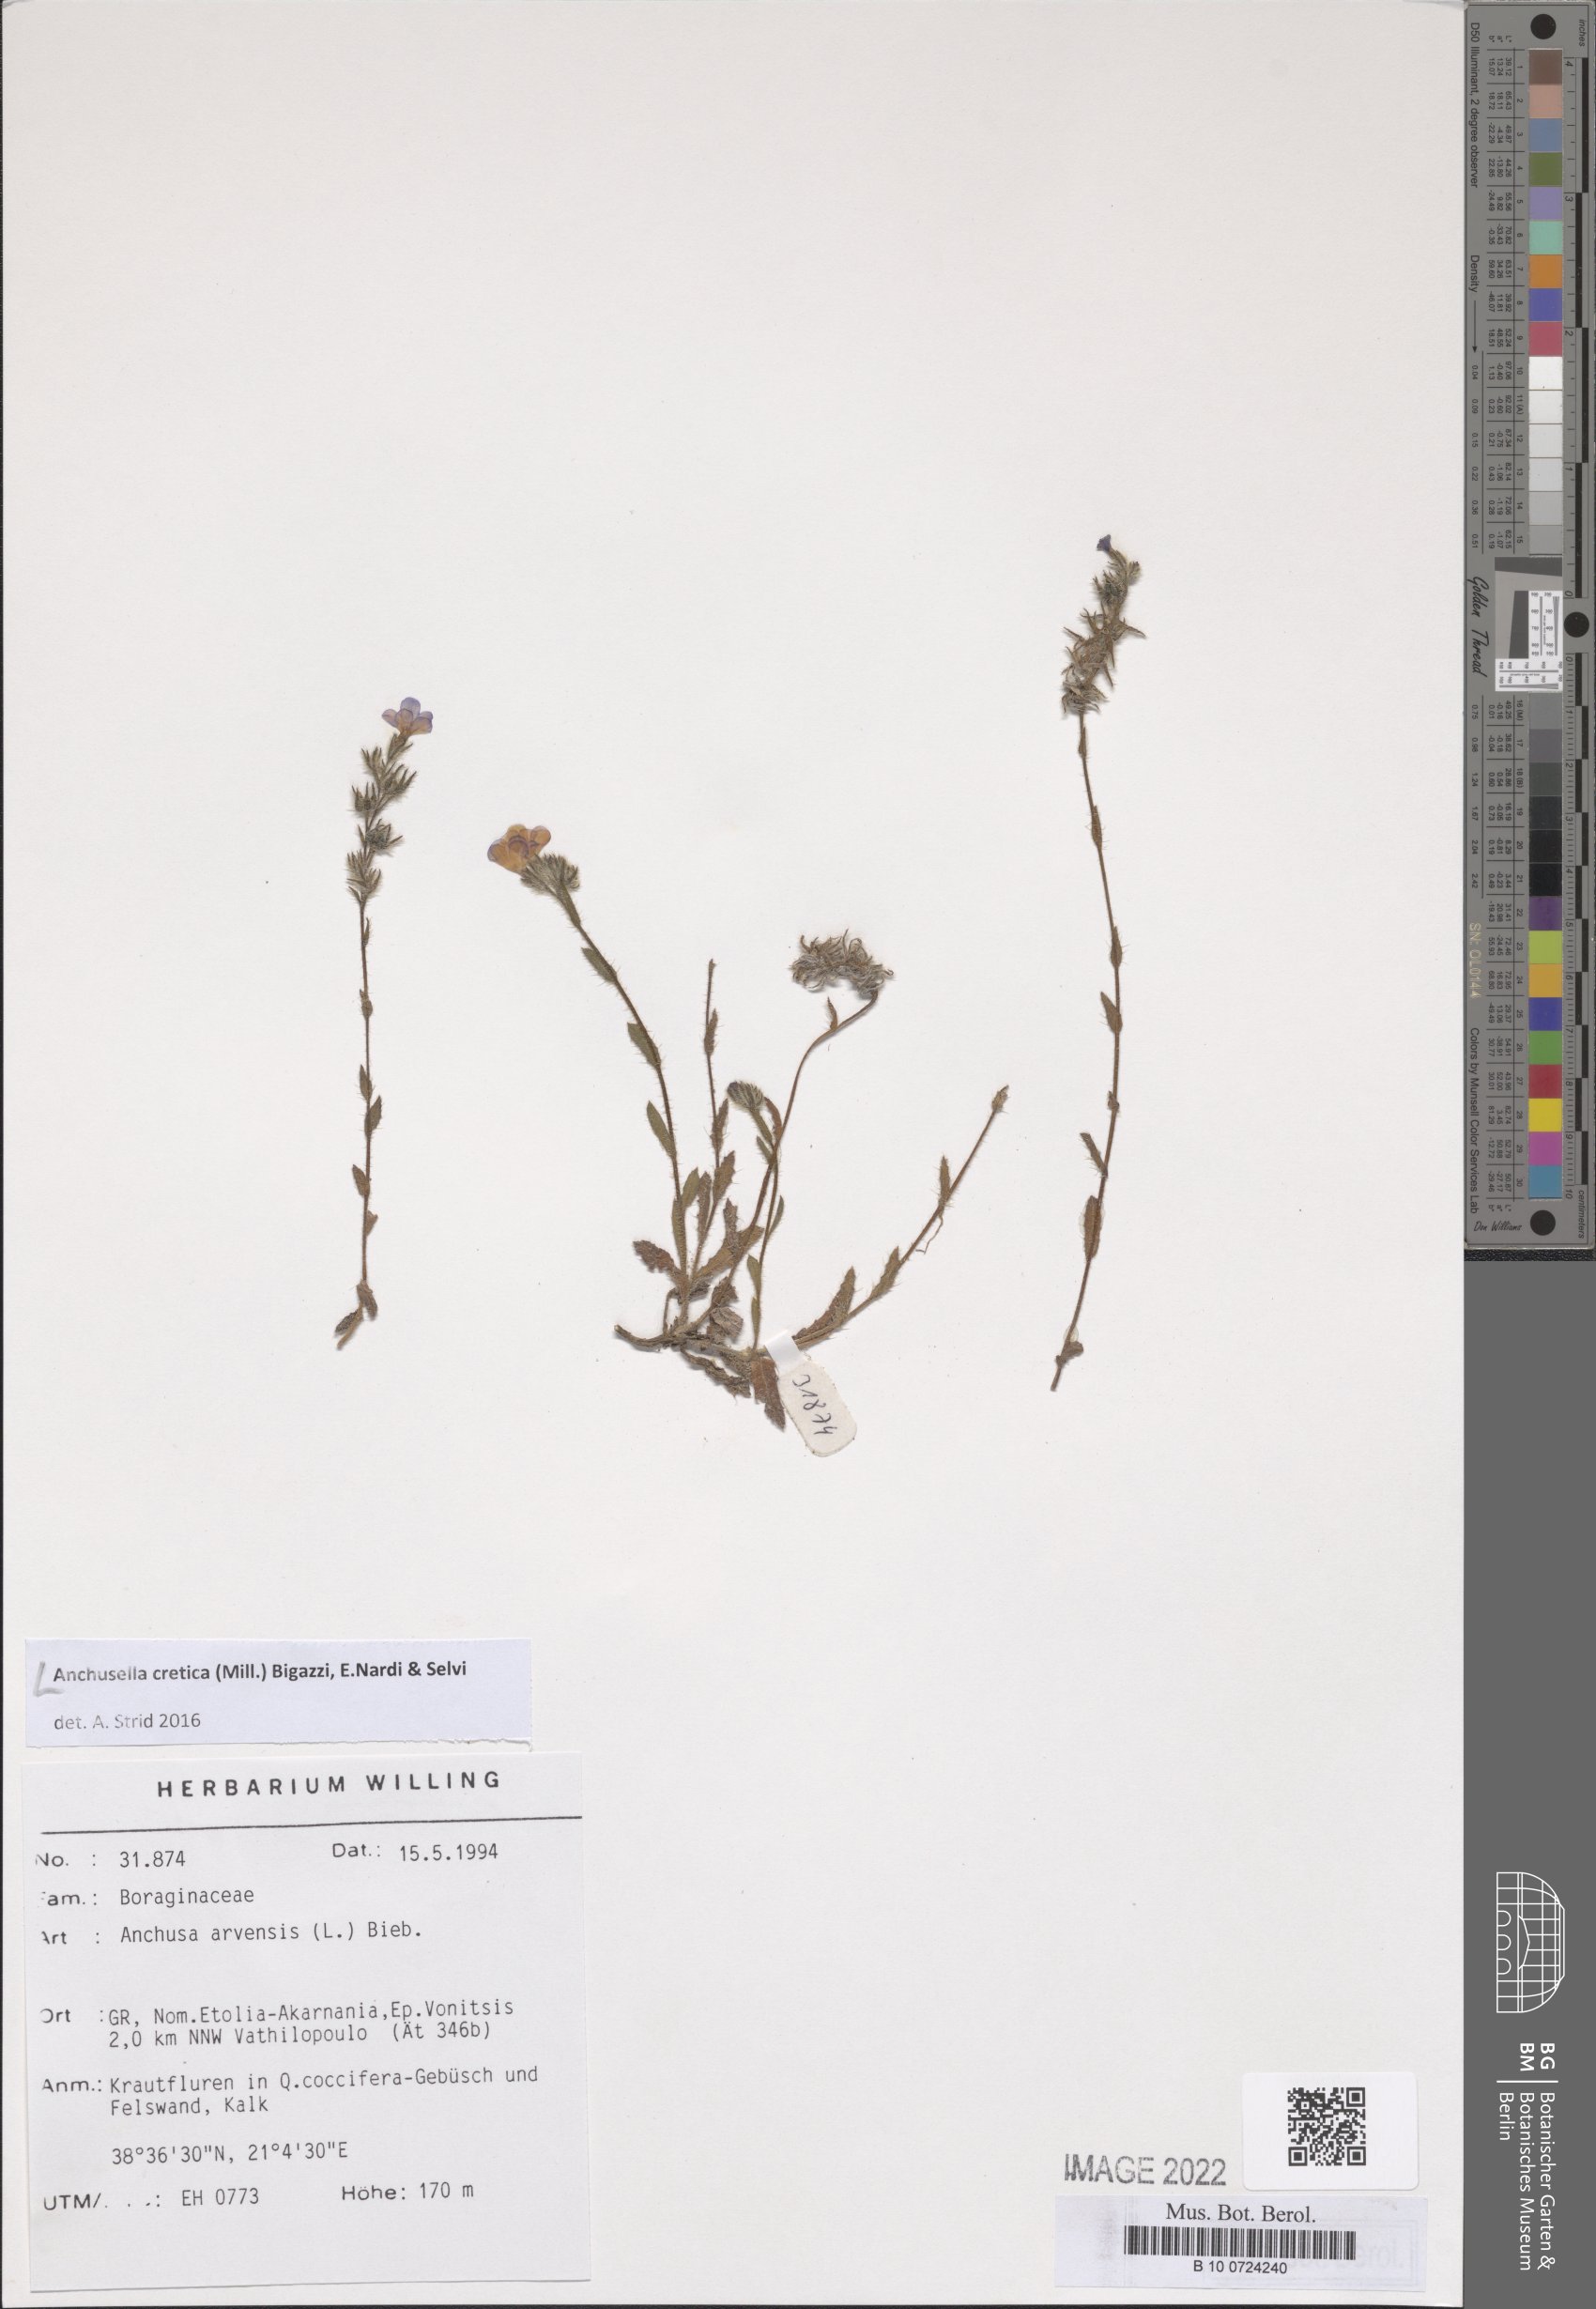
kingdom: Plantae
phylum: Tracheophyta
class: Magnoliopsida
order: Boraginales
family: Boraginaceae
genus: Anchusella
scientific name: Anchusella cretica
